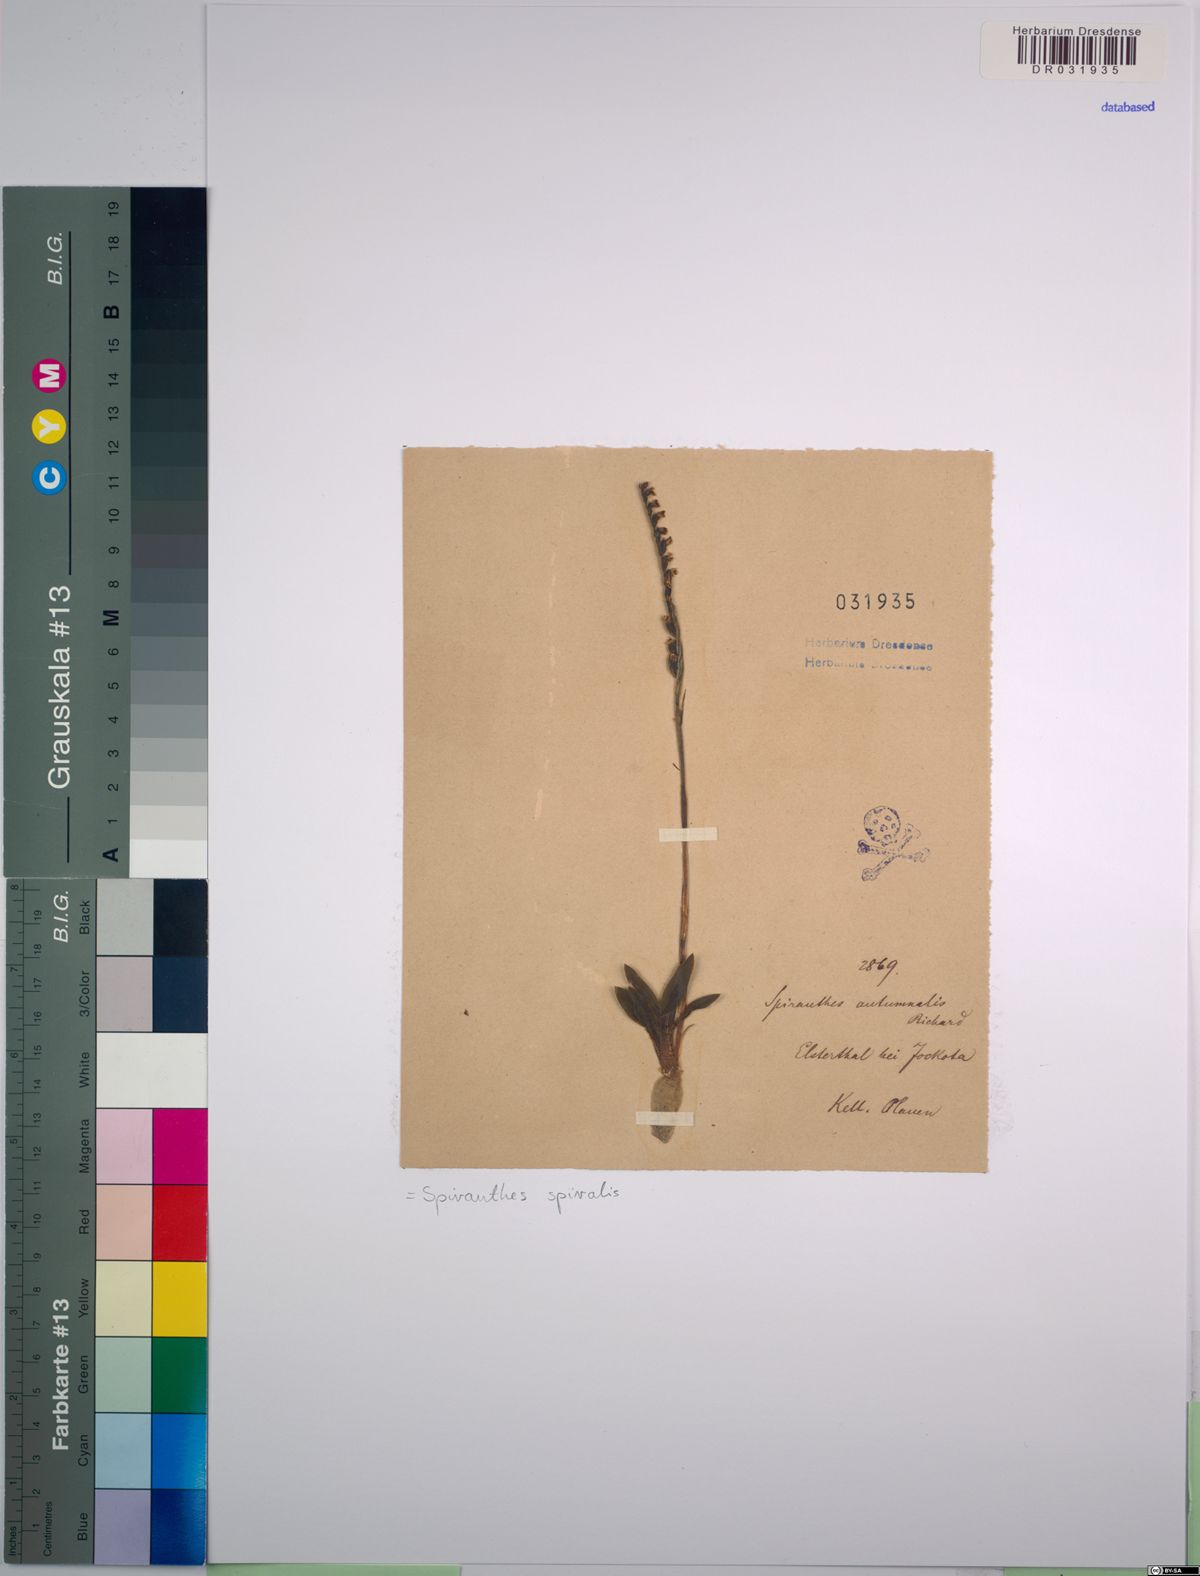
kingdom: Plantae
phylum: Tracheophyta
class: Liliopsida
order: Asparagales
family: Orchidaceae
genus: Spiranthes
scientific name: Spiranthes spiralis
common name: Autumn lady's-tresses
